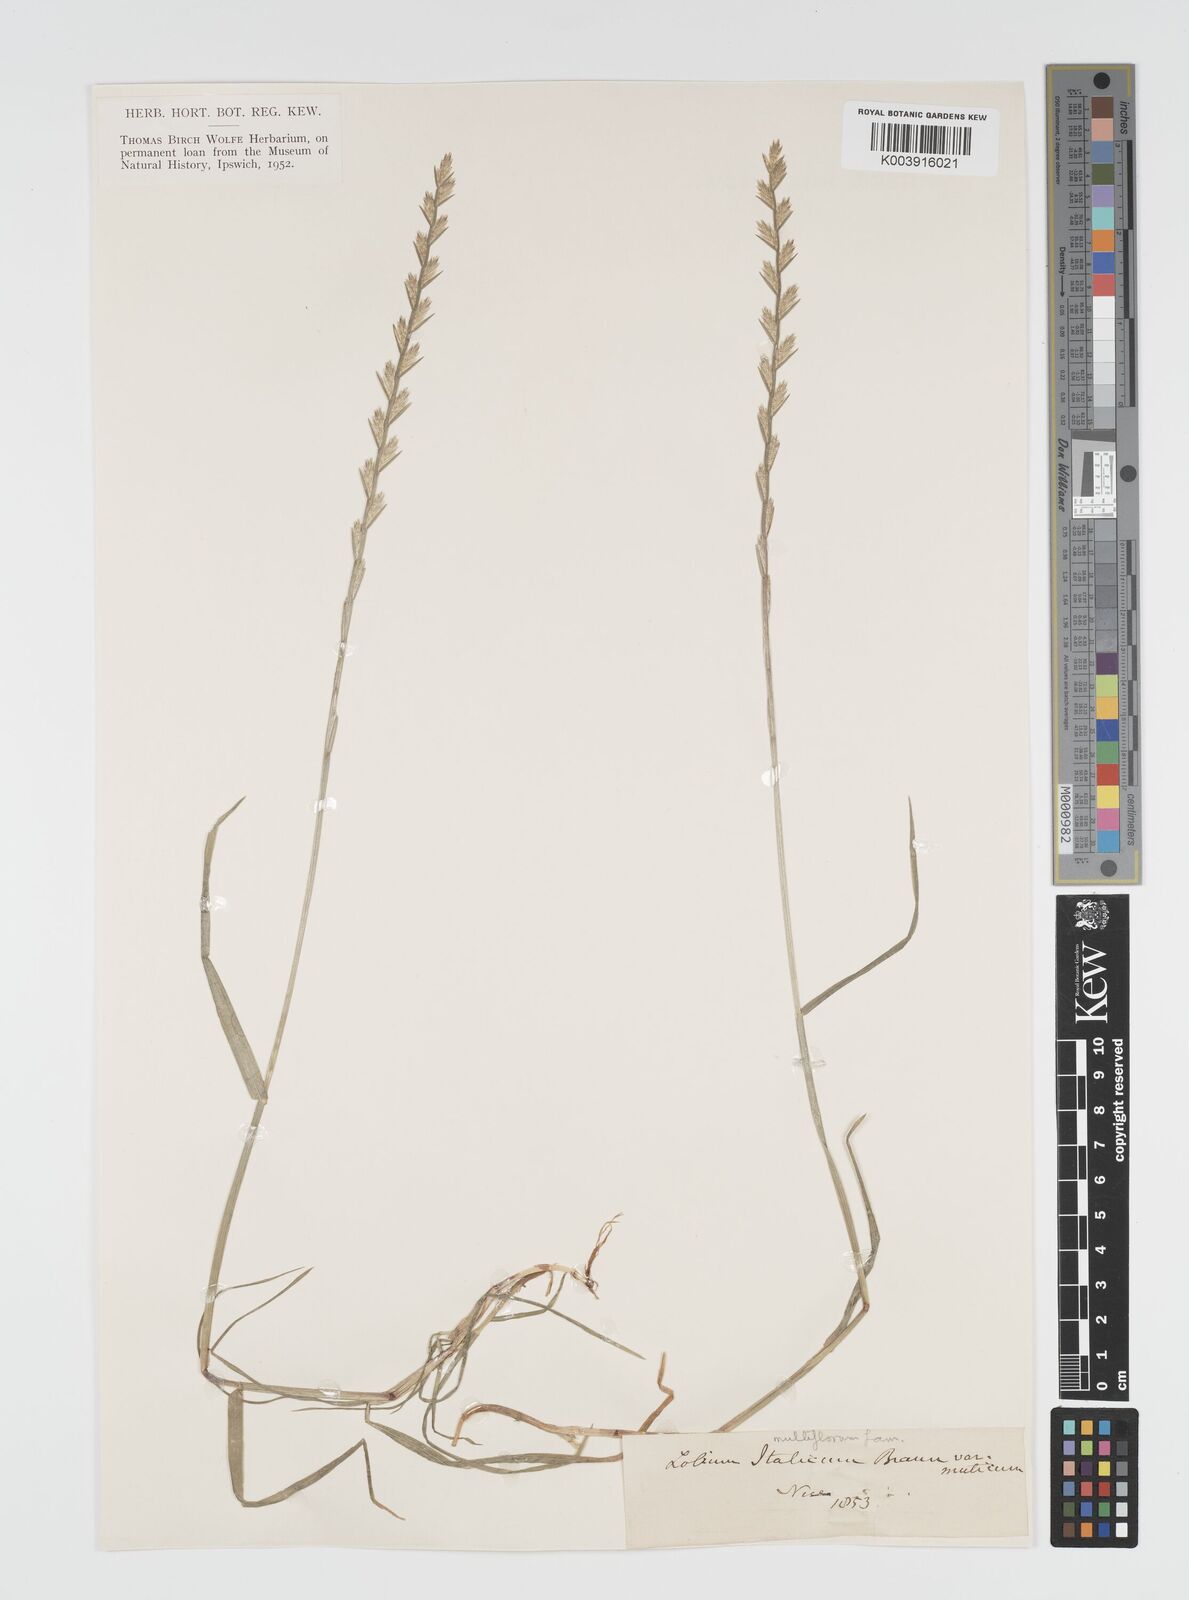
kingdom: Plantae
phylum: Tracheophyta
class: Liliopsida
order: Poales
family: Poaceae
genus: Lolium
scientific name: Lolium multiflorum
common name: Annual ryegrass
